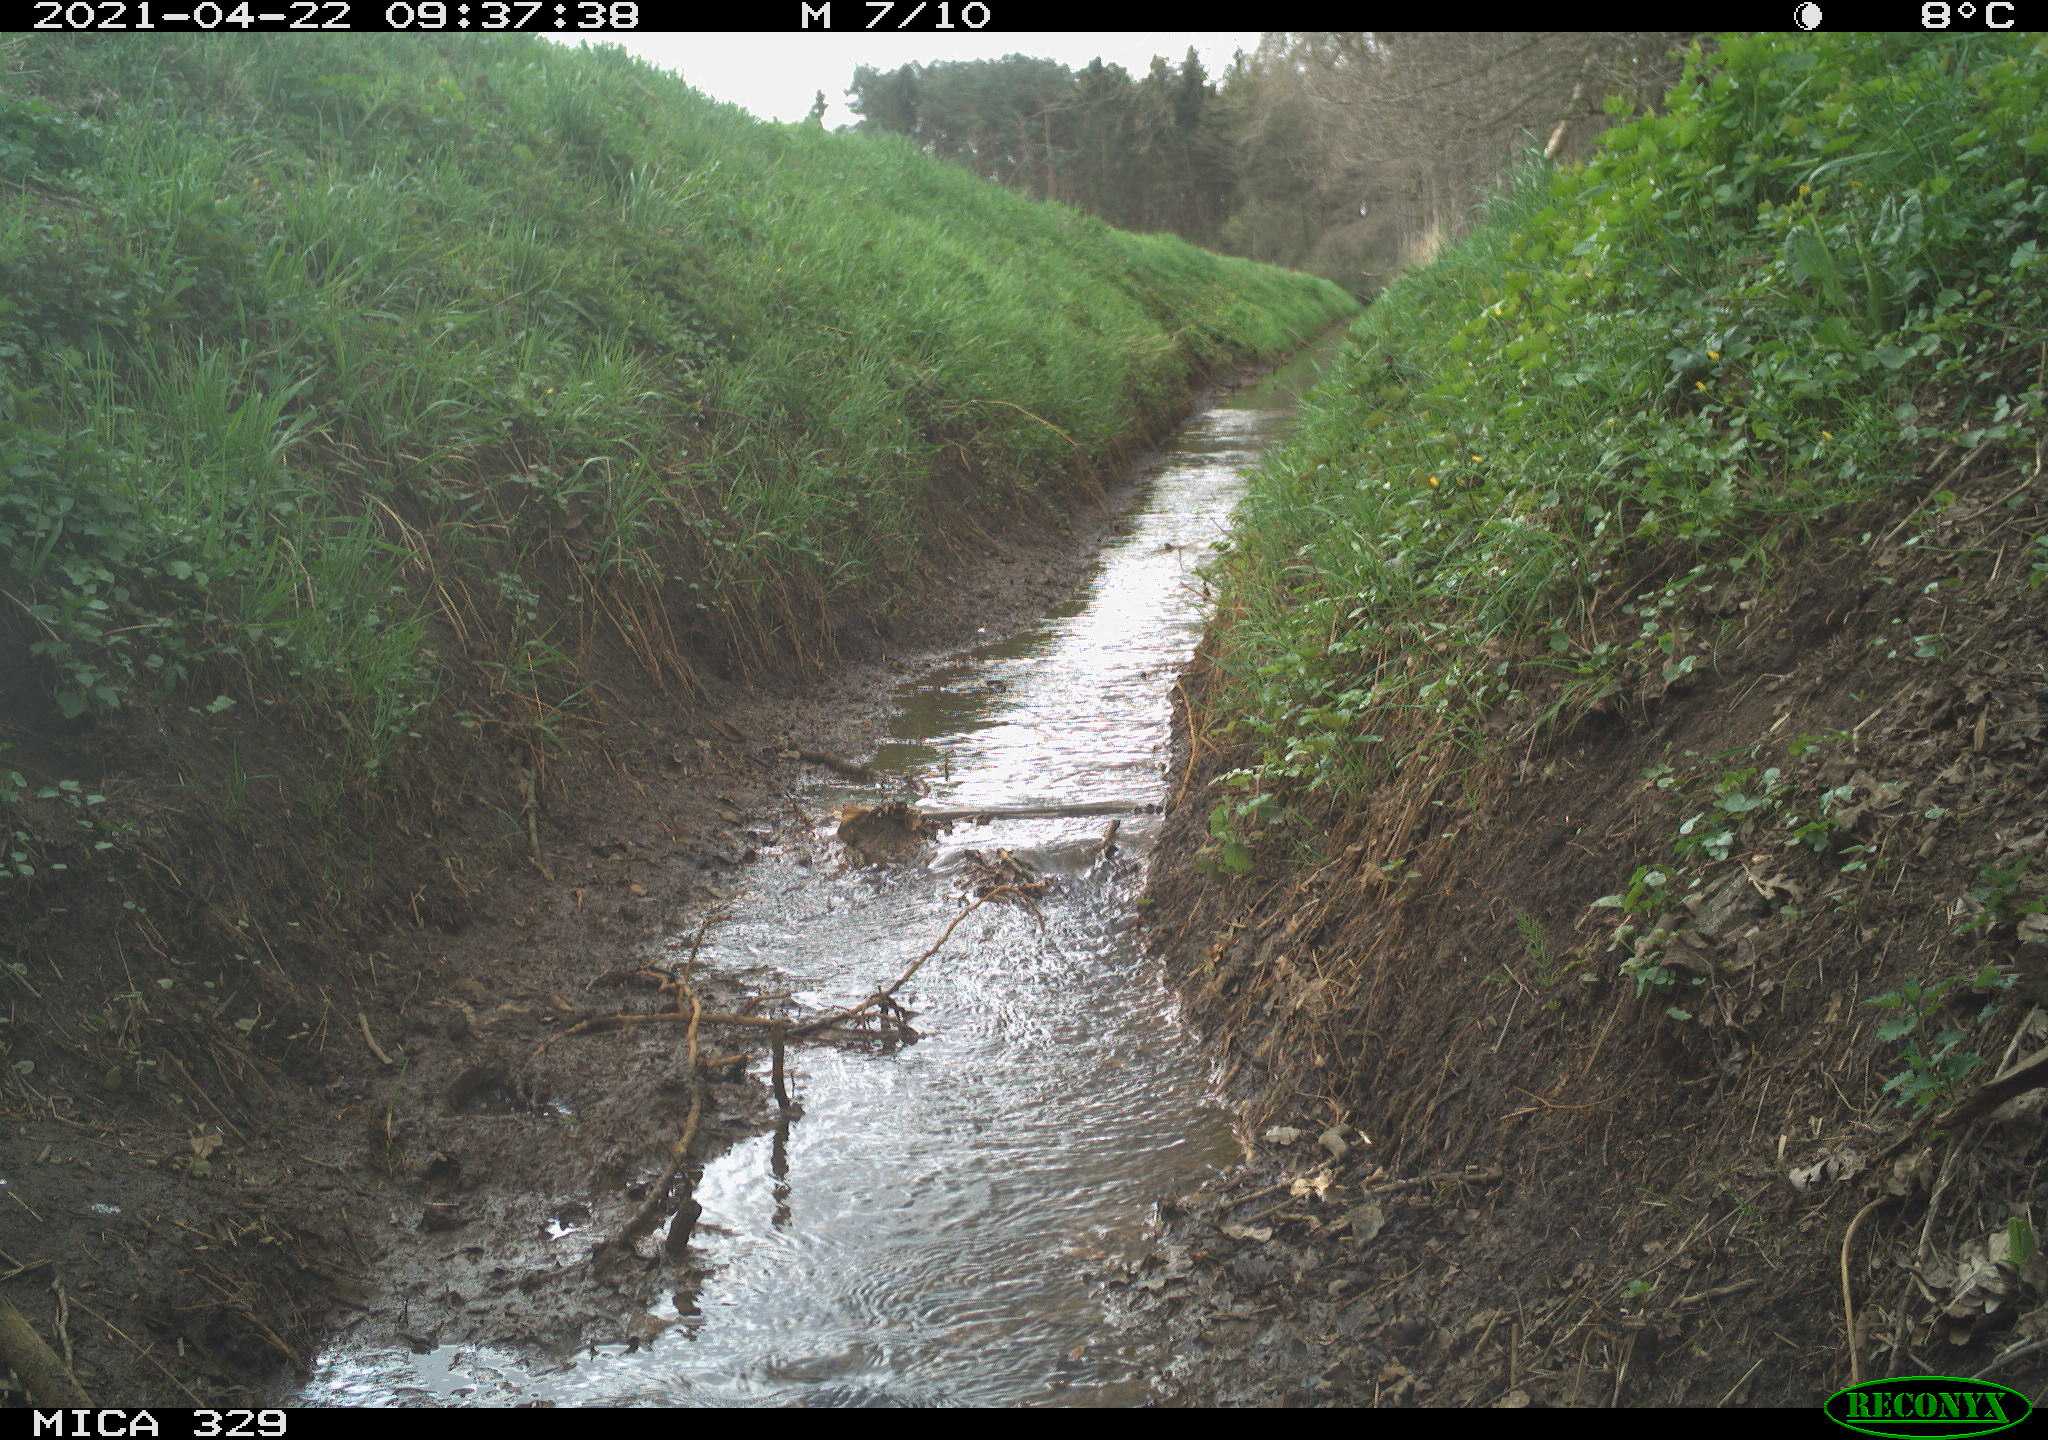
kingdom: Animalia
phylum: Chordata
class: Aves
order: Columbiformes
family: Columbidae
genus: Columba
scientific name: Columba palumbus
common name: Common wood pigeon
